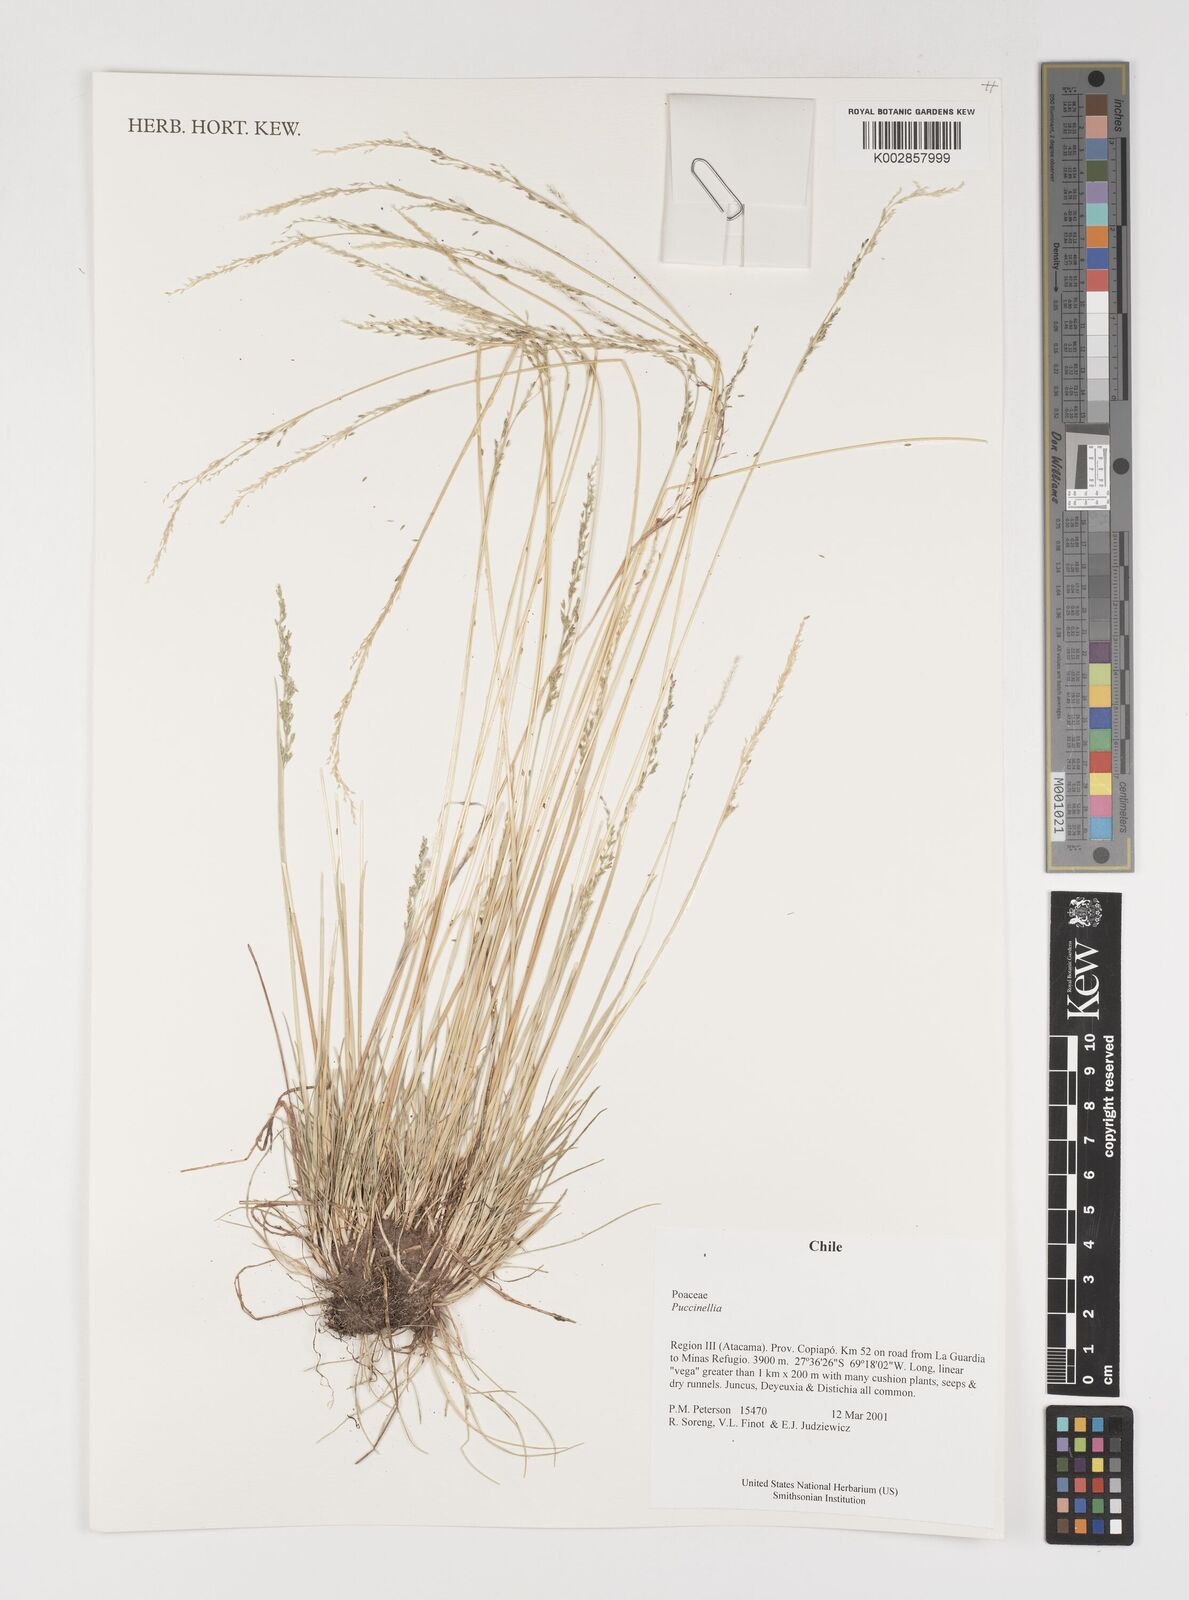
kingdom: Plantae
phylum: Tracheophyta
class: Liliopsida
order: Poales
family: Poaceae
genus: Puccinellia
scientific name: Puccinellia
